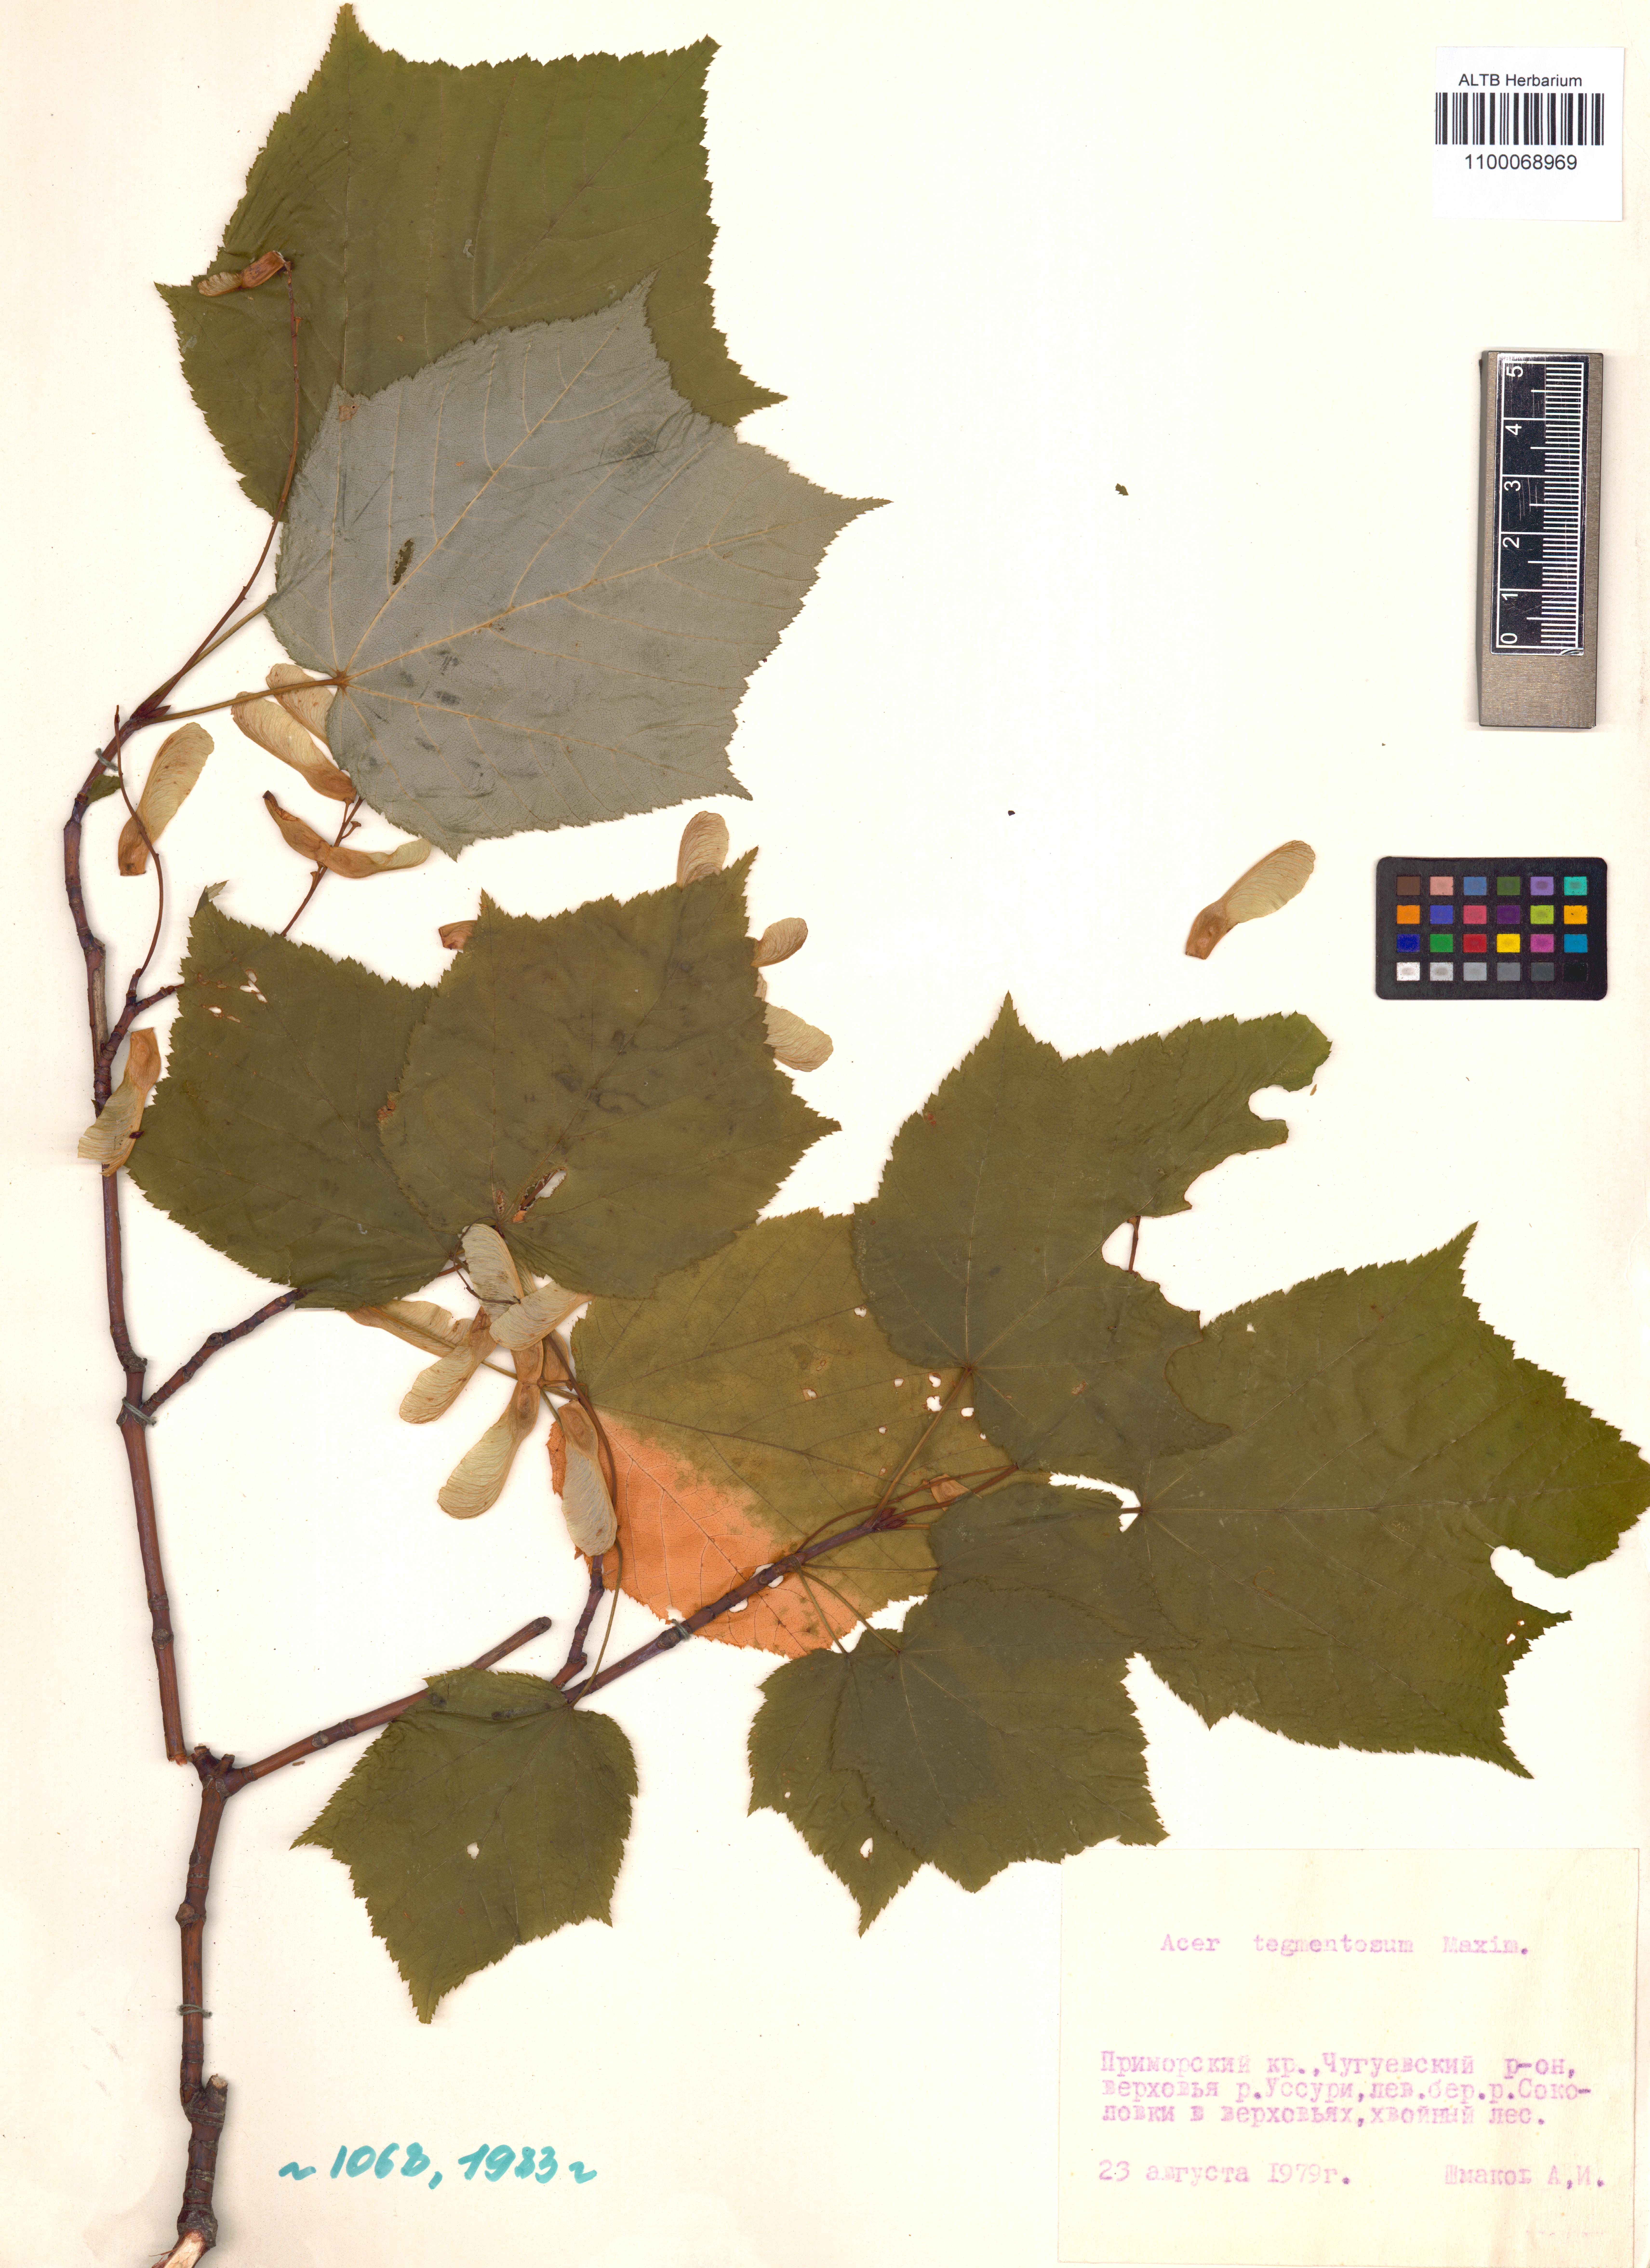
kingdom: Plantae
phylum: Tracheophyta
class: Magnoliopsida
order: Sapindales
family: Sapindaceae
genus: Acer
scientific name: Acer tegmentosum
